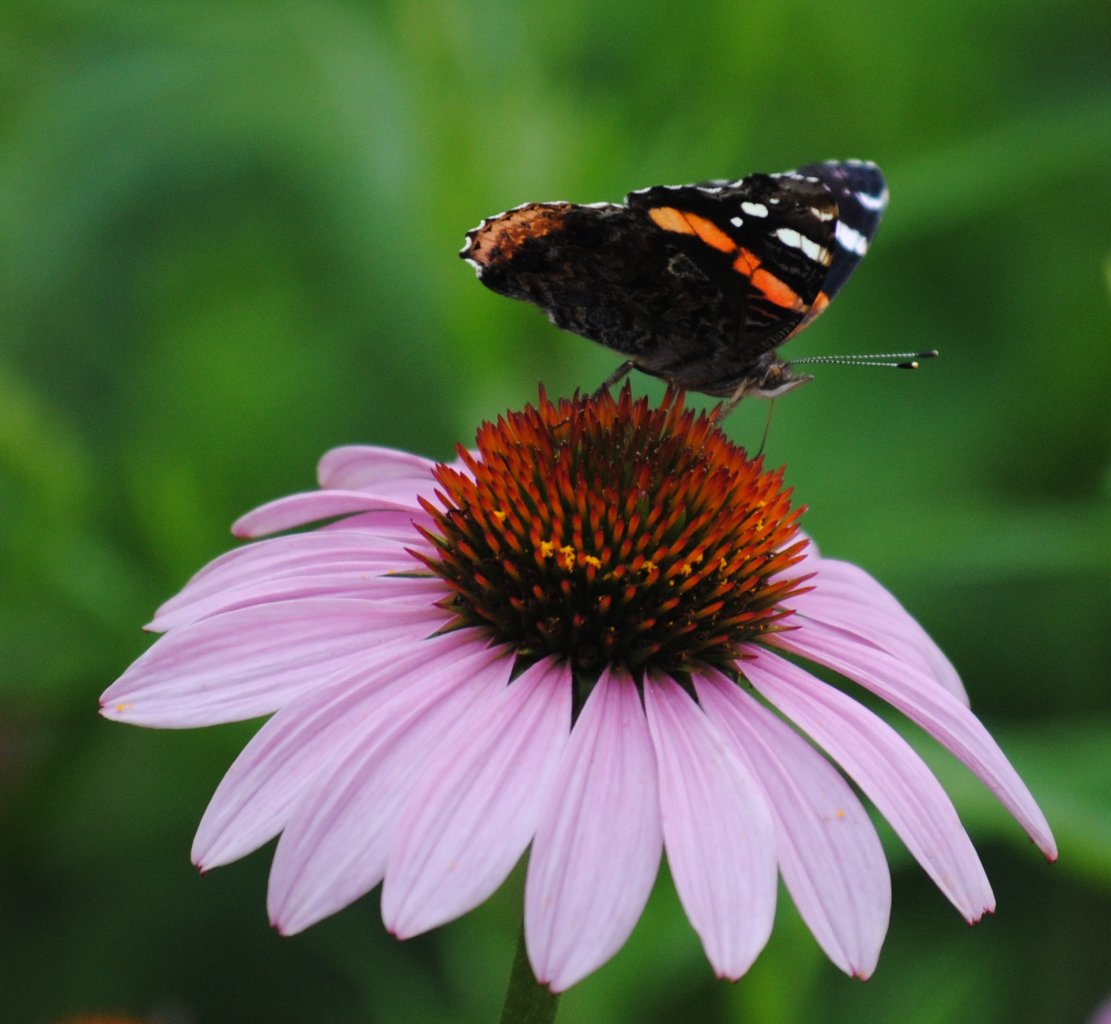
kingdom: Animalia
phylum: Arthropoda
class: Insecta
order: Lepidoptera
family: Nymphalidae
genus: Vanessa
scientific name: Vanessa atalanta
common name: Red Admiral
